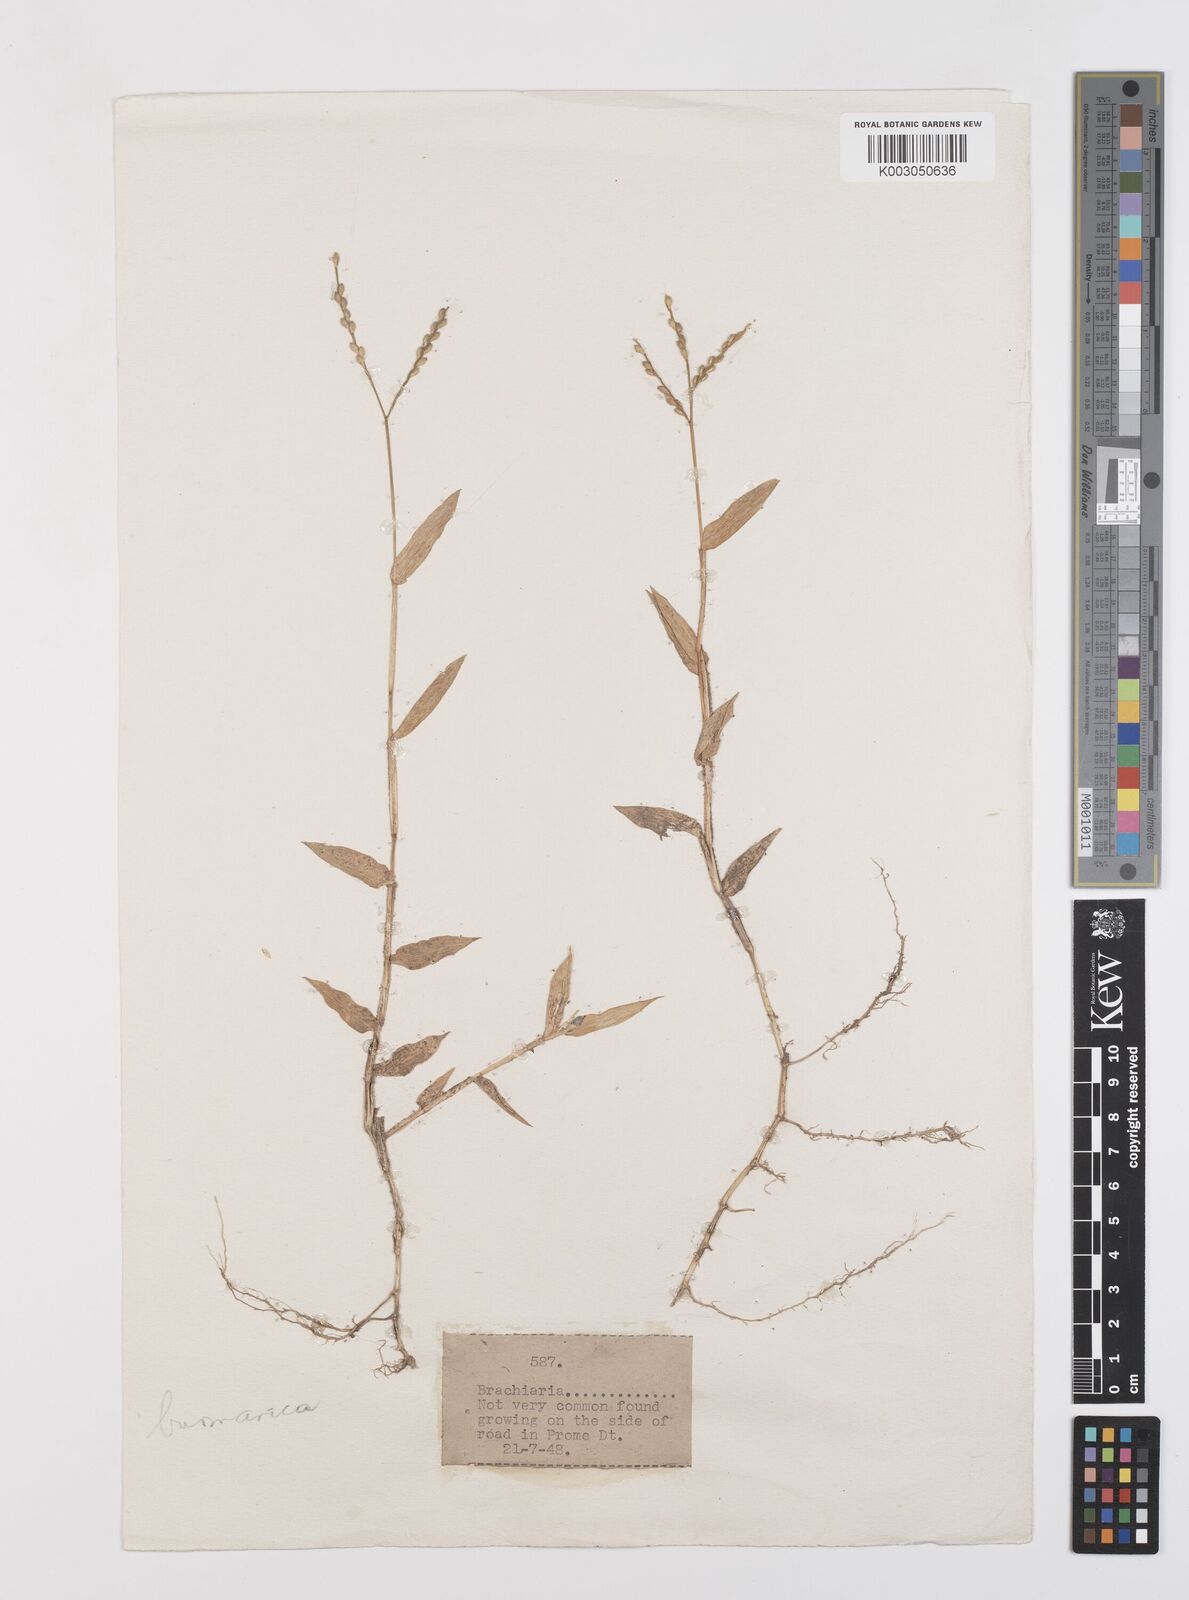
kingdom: Plantae
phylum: Tracheophyta
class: Liliopsida
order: Poales
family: Poaceae
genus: Urochloa
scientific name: Urochloa burmanica
